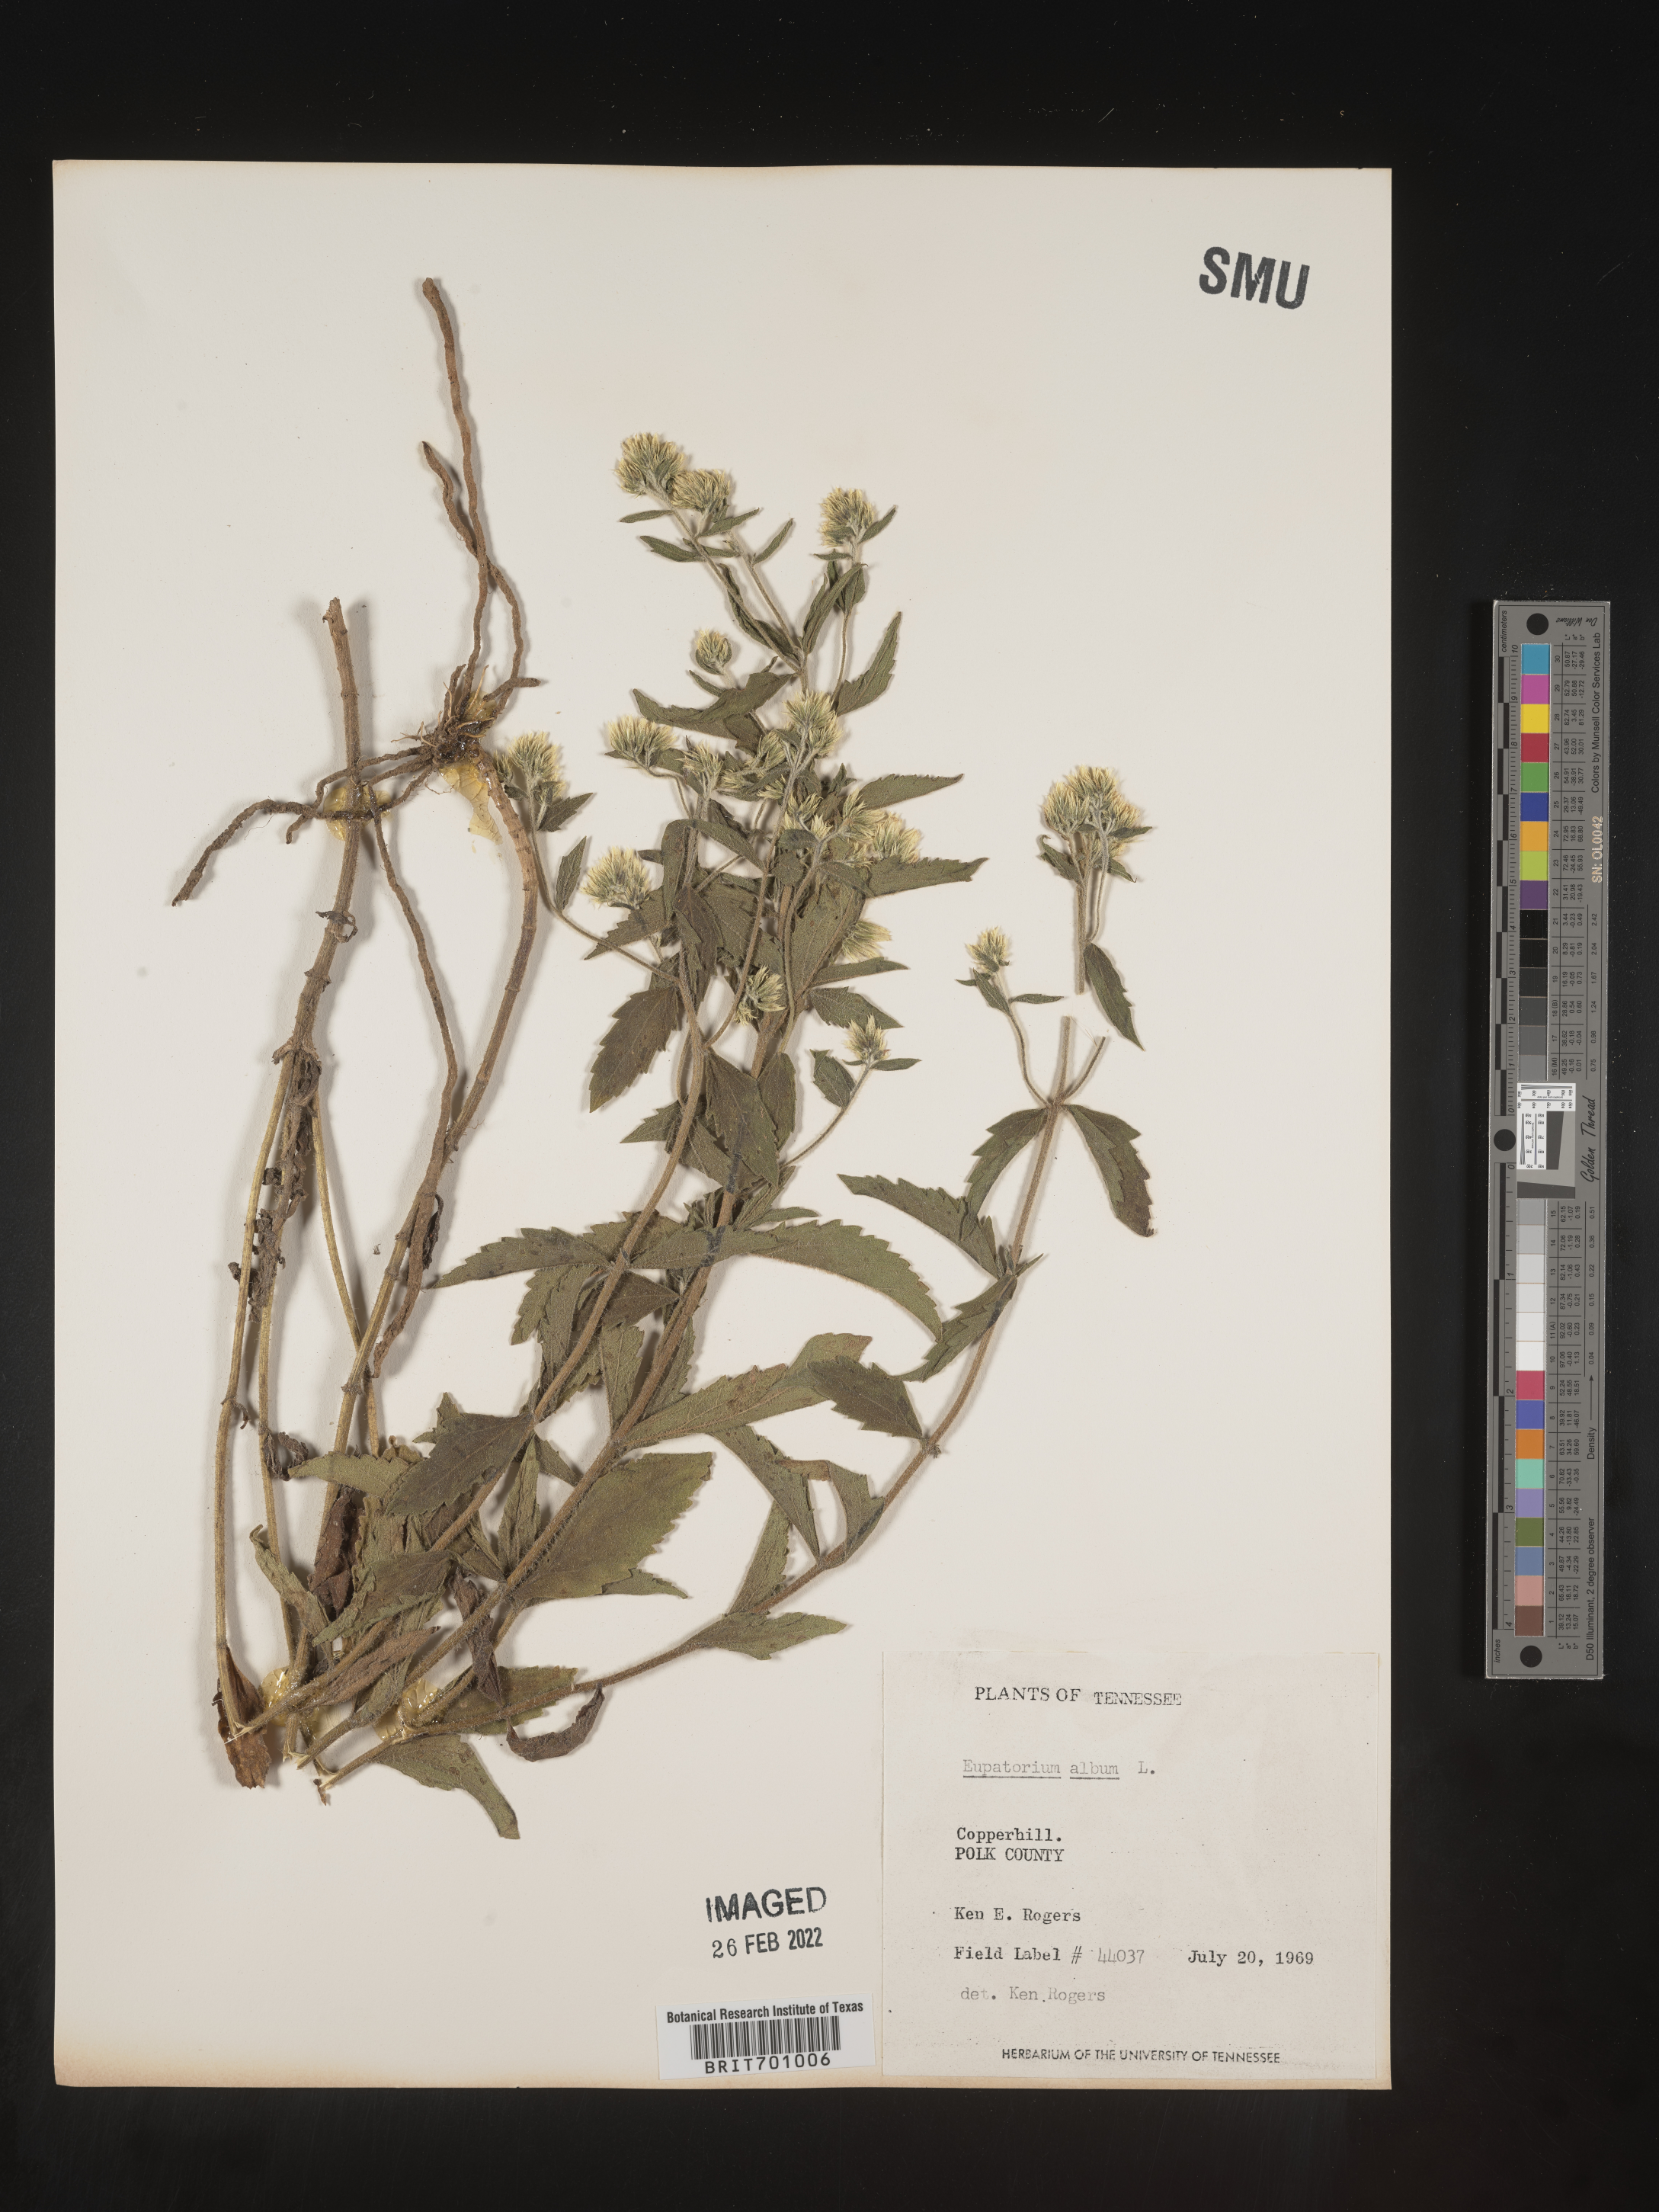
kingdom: Plantae
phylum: Tracheophyta
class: Magnoliopsida
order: Asterales
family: Asteraceae
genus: Eupatorium
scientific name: Eupatorium album
